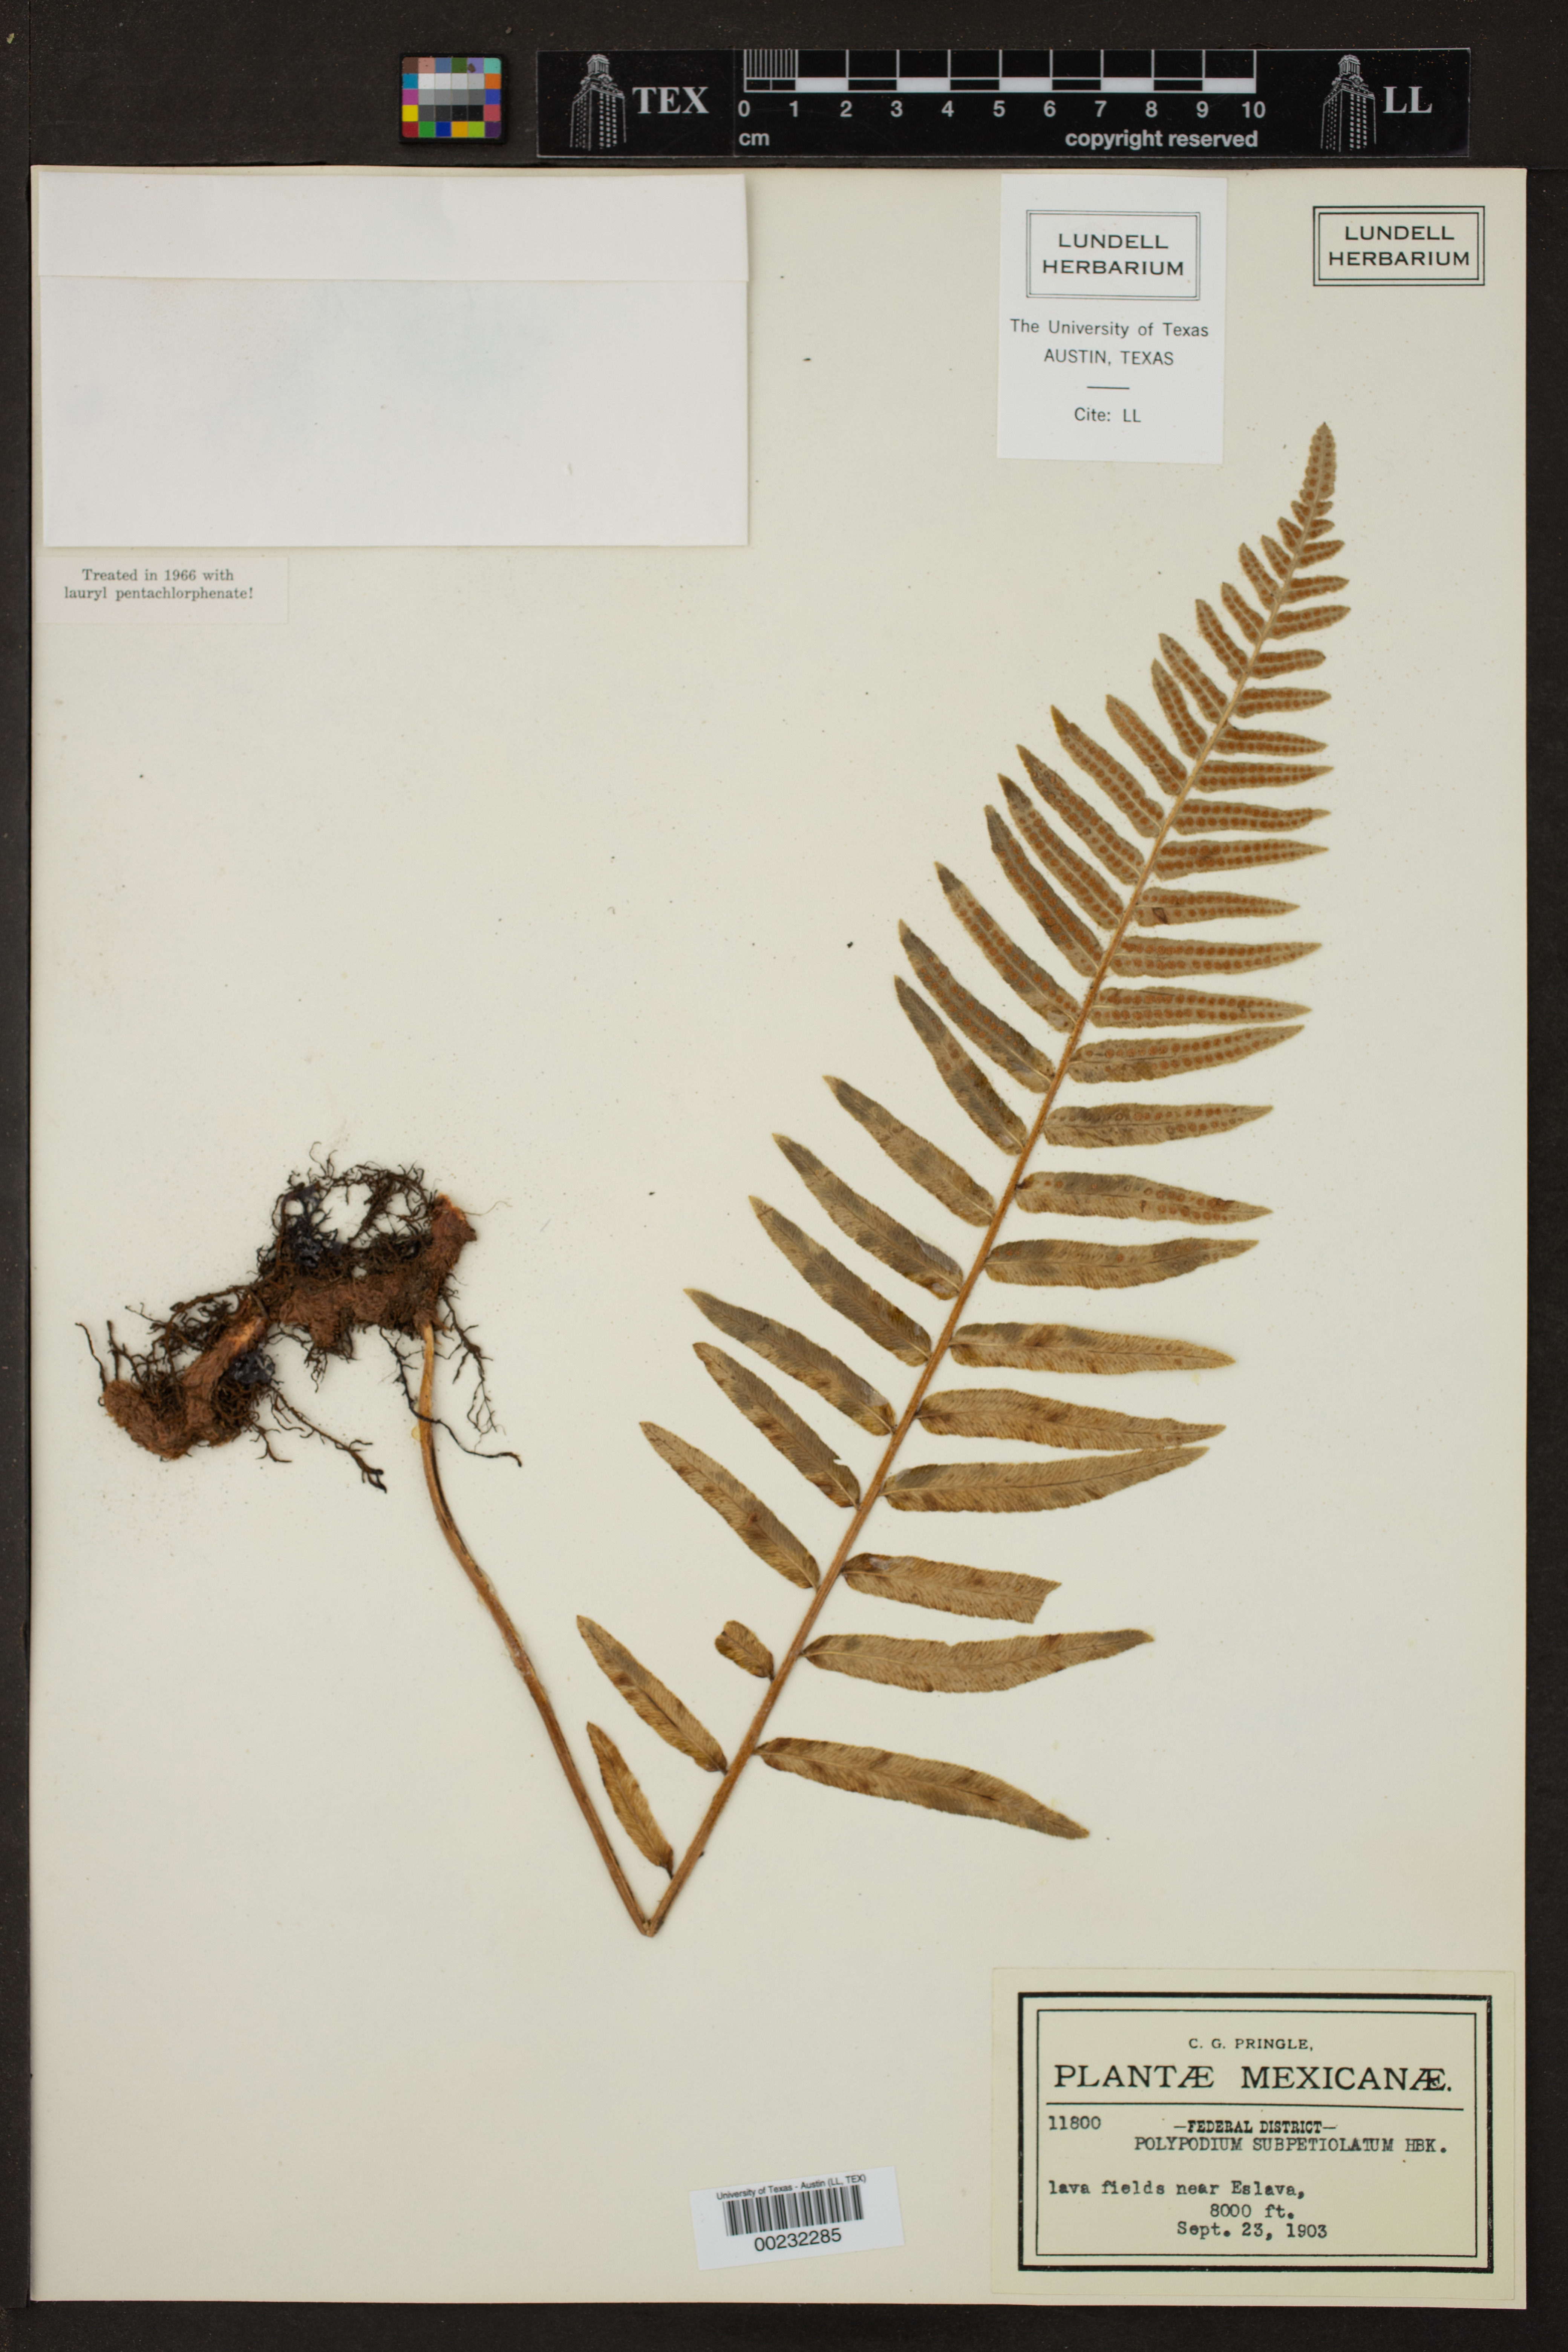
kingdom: Plantae
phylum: Tracheophyta
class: Polypodiopsida
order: Polypodiales
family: Polypodiaceae
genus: Polypodium
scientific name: Polypodium subpetiolatum
